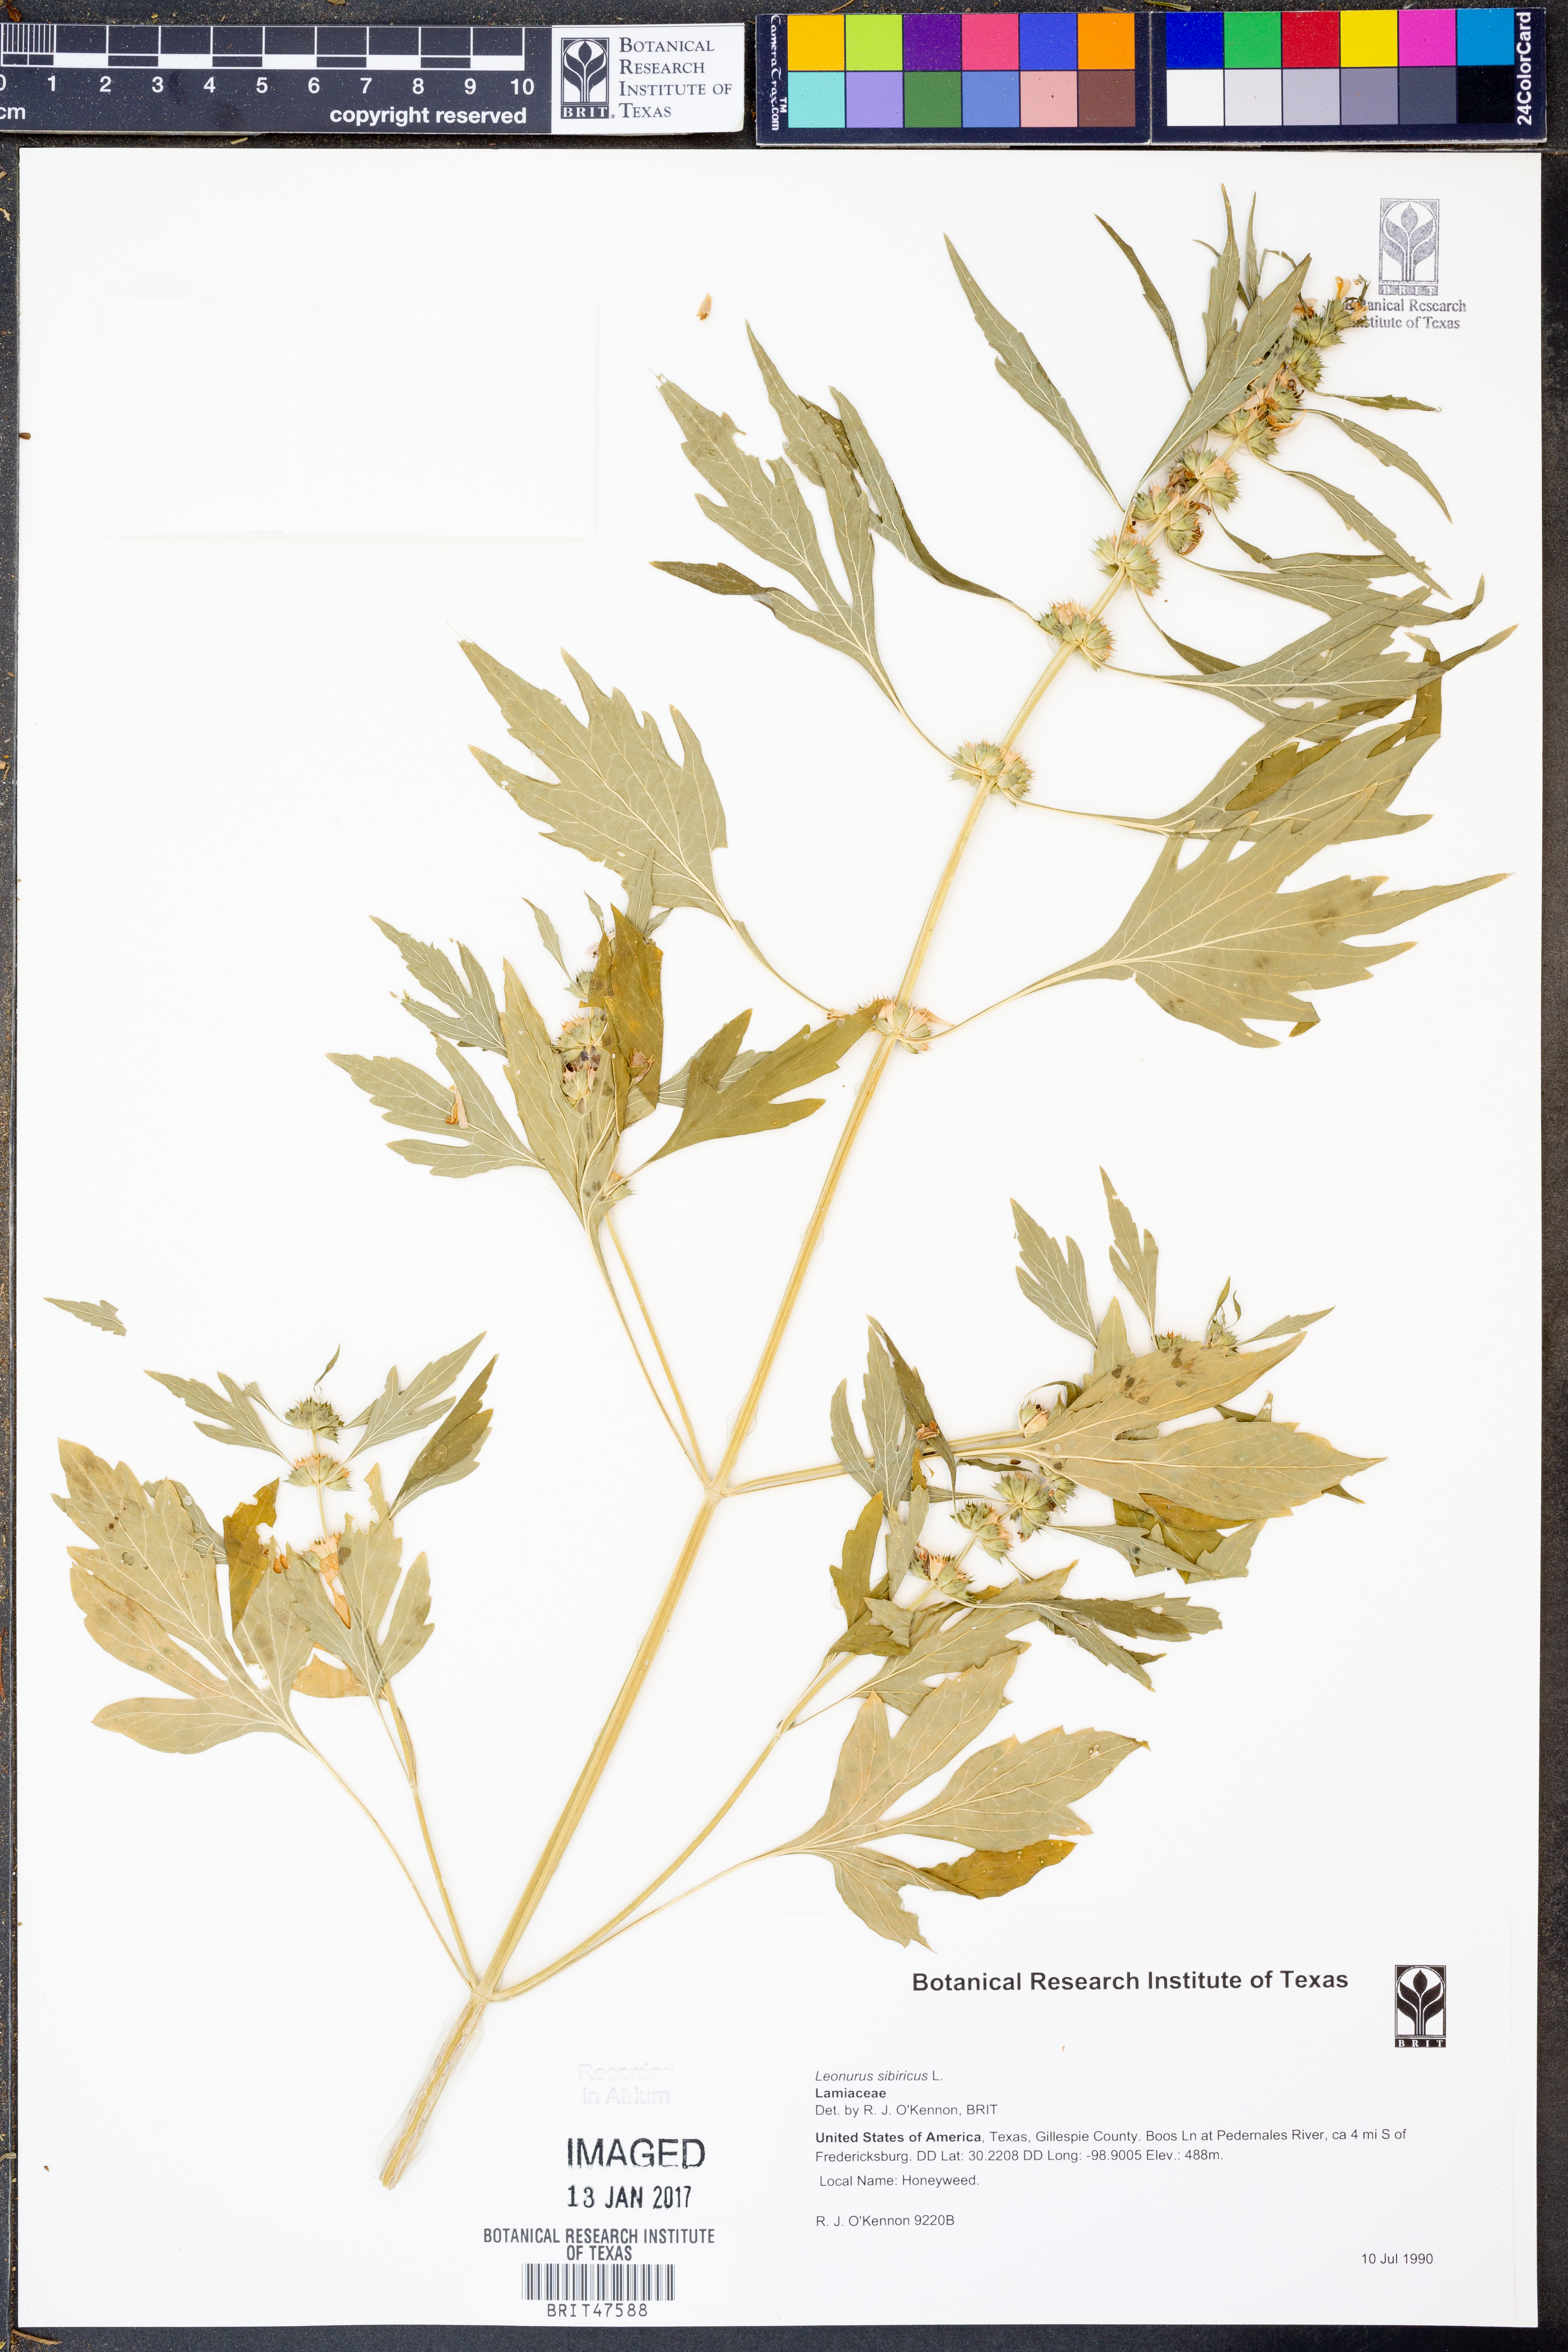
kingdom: Plantae
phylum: Tracheophyta
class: Magnoliopsida
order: Lamiales
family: Lamiaceae
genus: Leonurus
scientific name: Leonurus sibiricus
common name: Honeyweed
